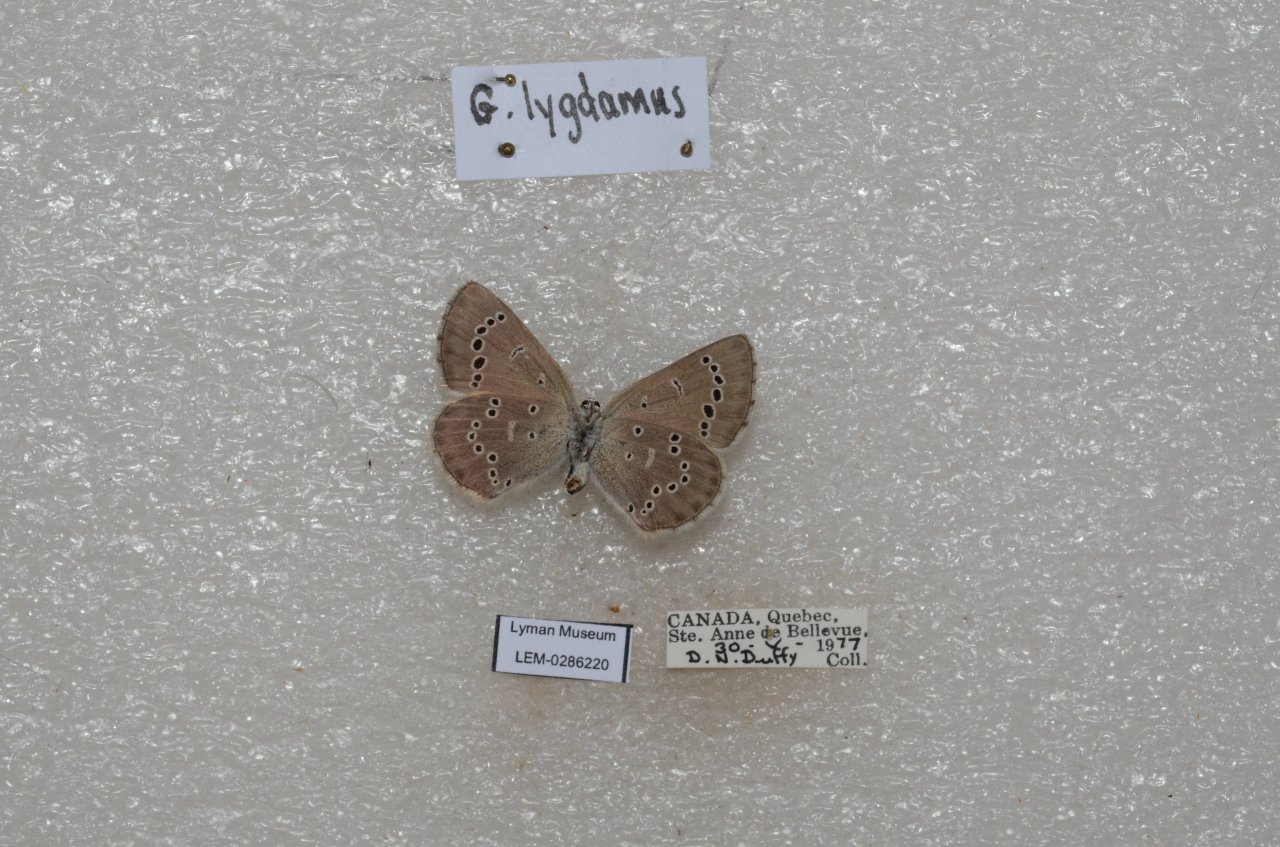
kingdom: Animalia
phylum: Arthropoda
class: Insecta
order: Lepidoptera
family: Lycaenidae
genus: Glaucopsyche
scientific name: Glaucopsyche lygdamus
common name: Silvery Blue
